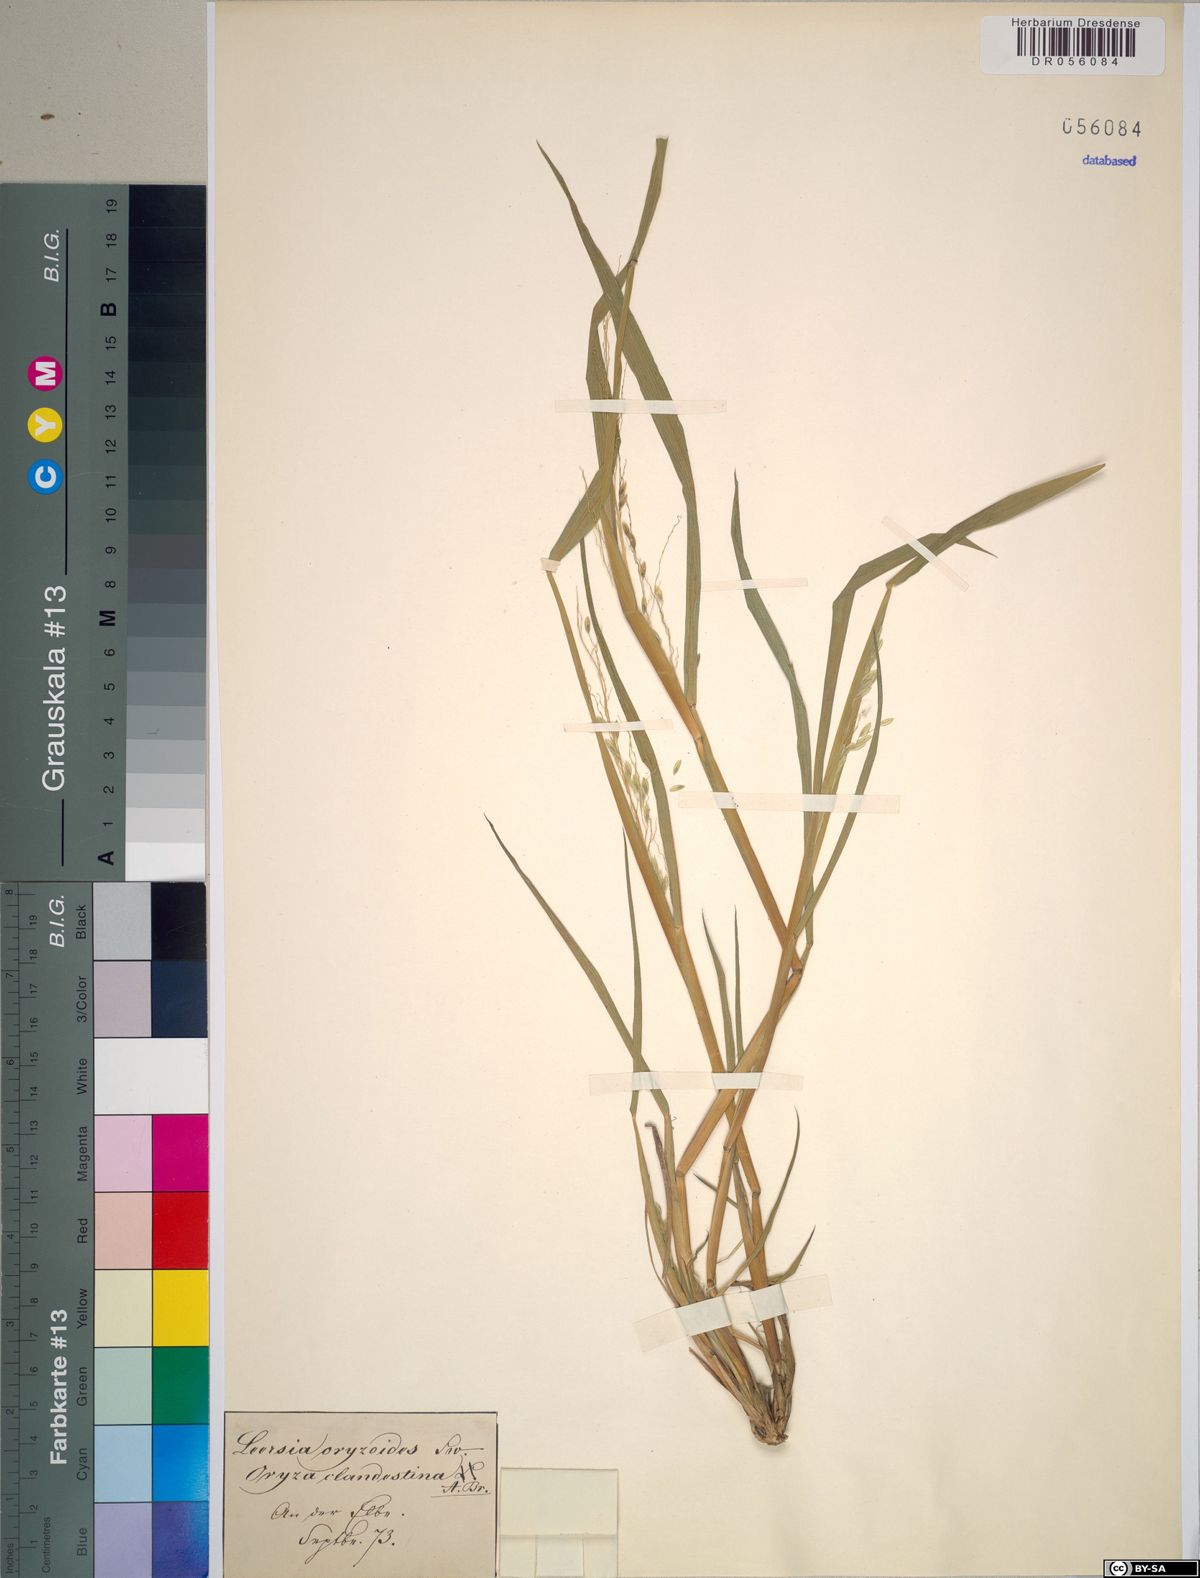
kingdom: Plantae
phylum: Tracheophyta
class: Liliopsida
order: Poales
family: Poaceae
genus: Leersia
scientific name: Leersia oryzoides
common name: Cut-grass
